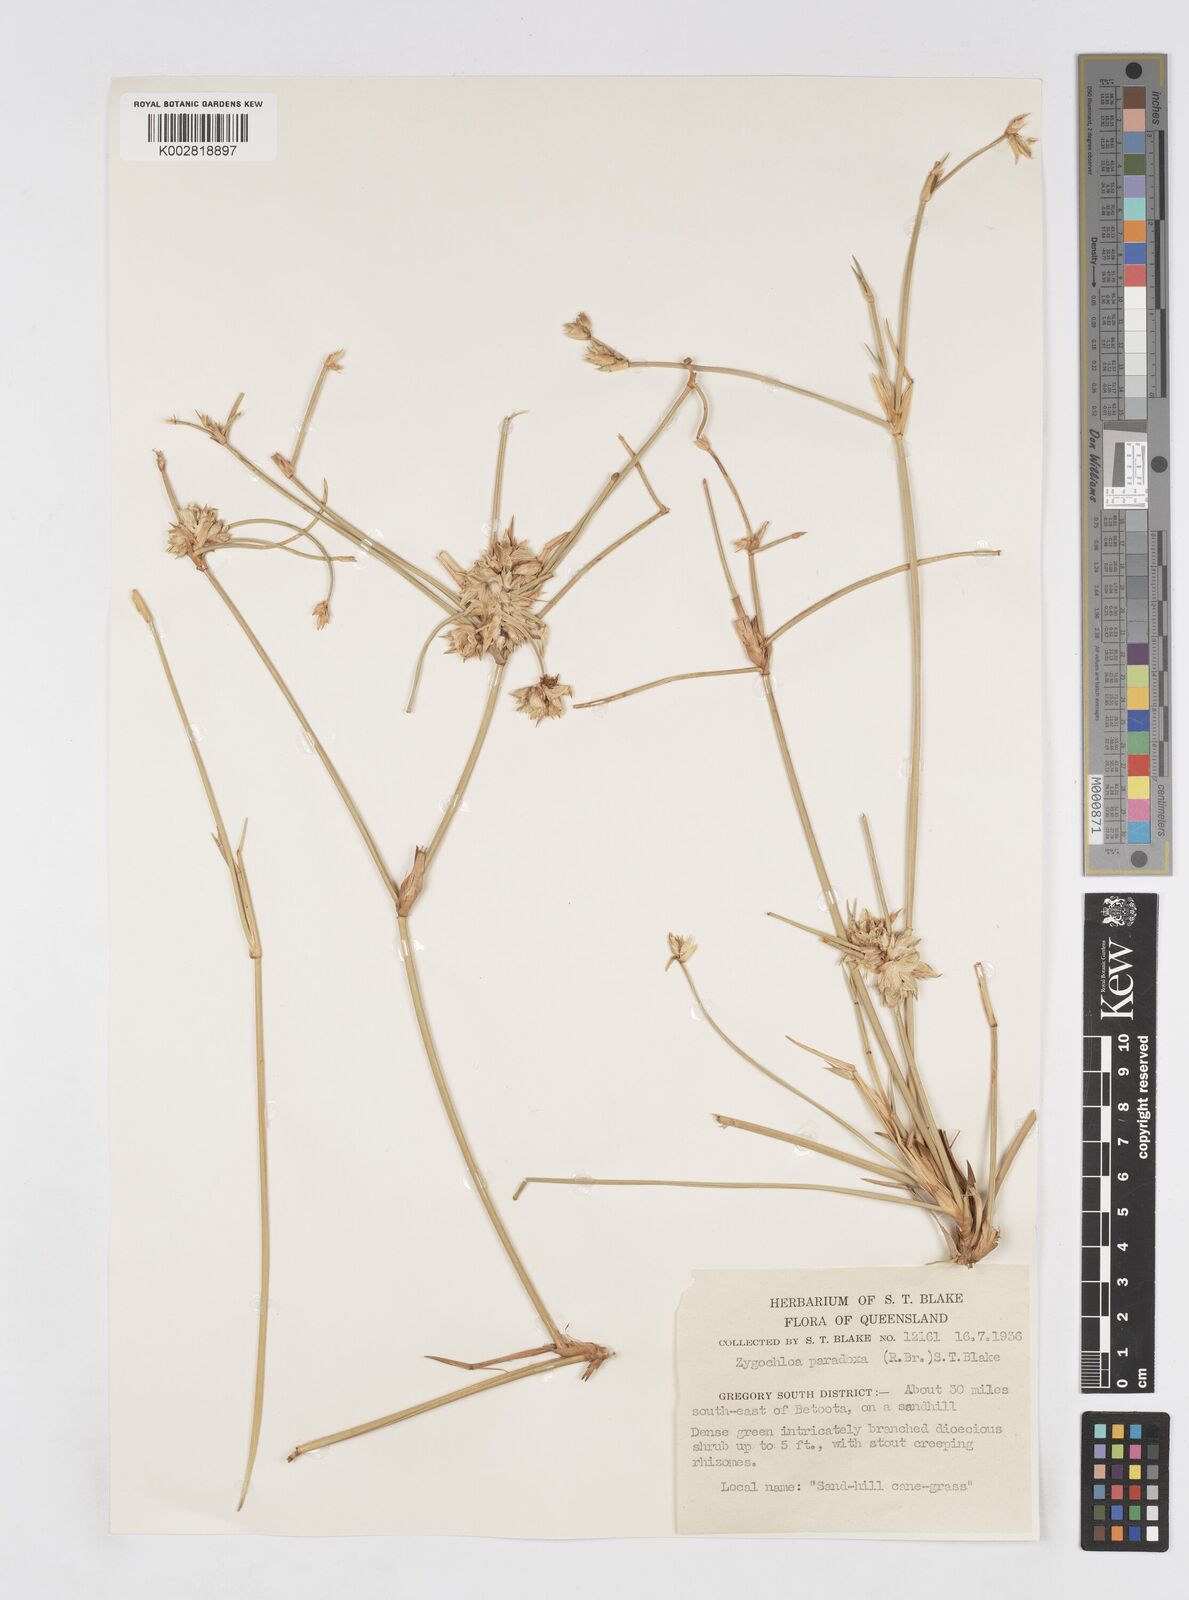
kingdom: Plantae
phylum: Tracheophyta
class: Liliopsida
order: Poales
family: Poaceae
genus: Zygochloa
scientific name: Zygochloa paradoxa
